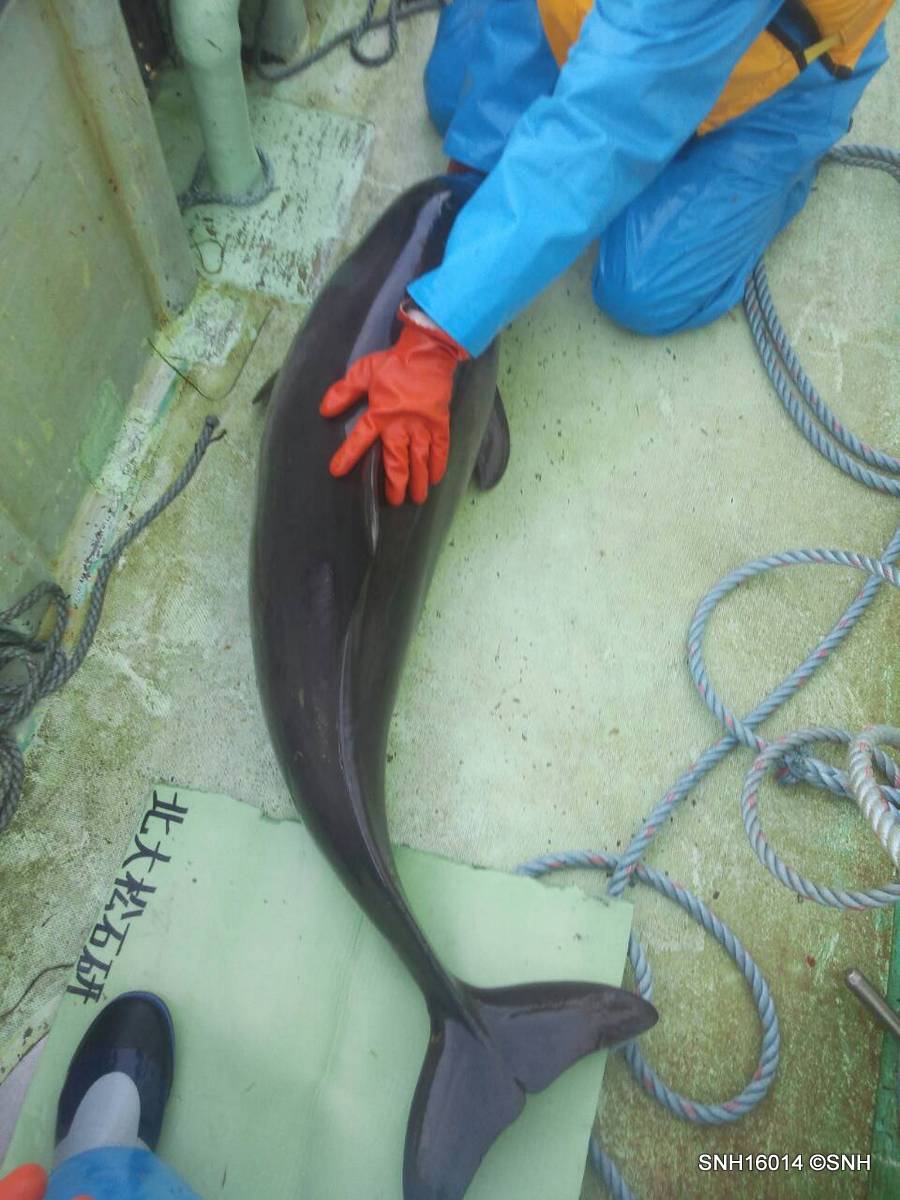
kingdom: Animalia
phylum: Chordata
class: Mammalia
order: Cetacea
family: Phocoenidae
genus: Phocoena
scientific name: Phocoena phocoena
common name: Harbour porpoise
